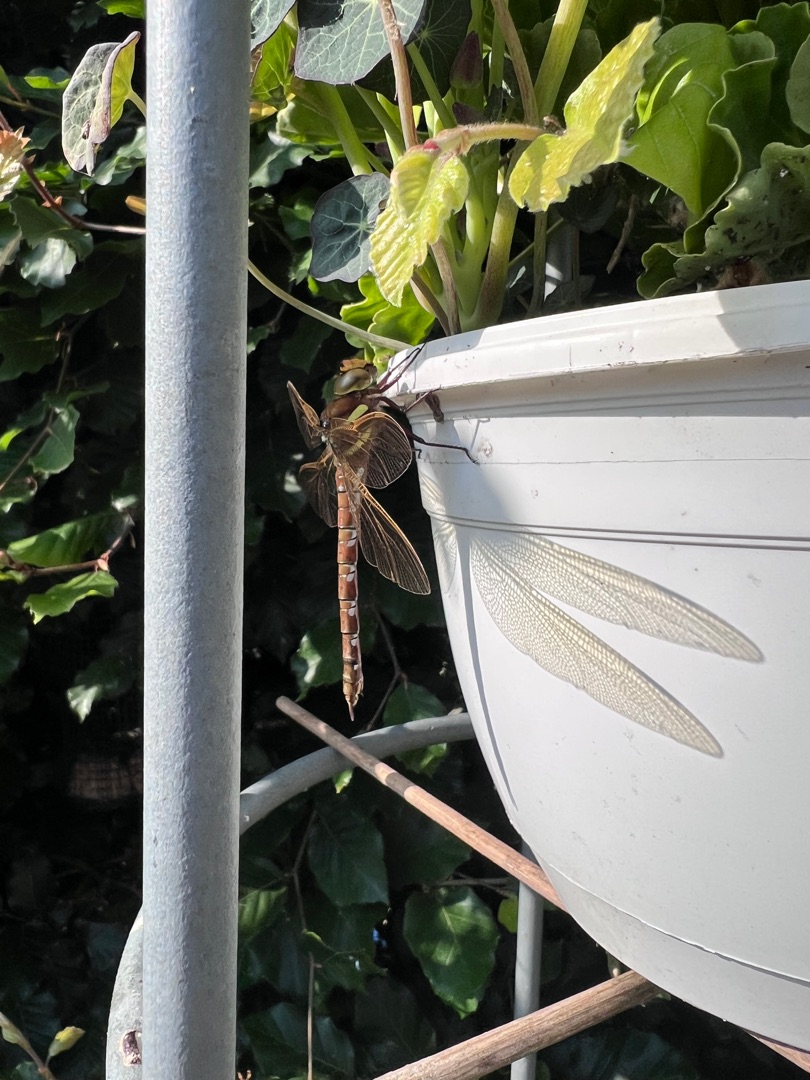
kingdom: Animalia
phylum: Arthropoda
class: Insecta
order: Odonata
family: Aeshnidae
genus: Aeshna
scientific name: Aeshna grandis
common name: Brun mosaikguldsmed
